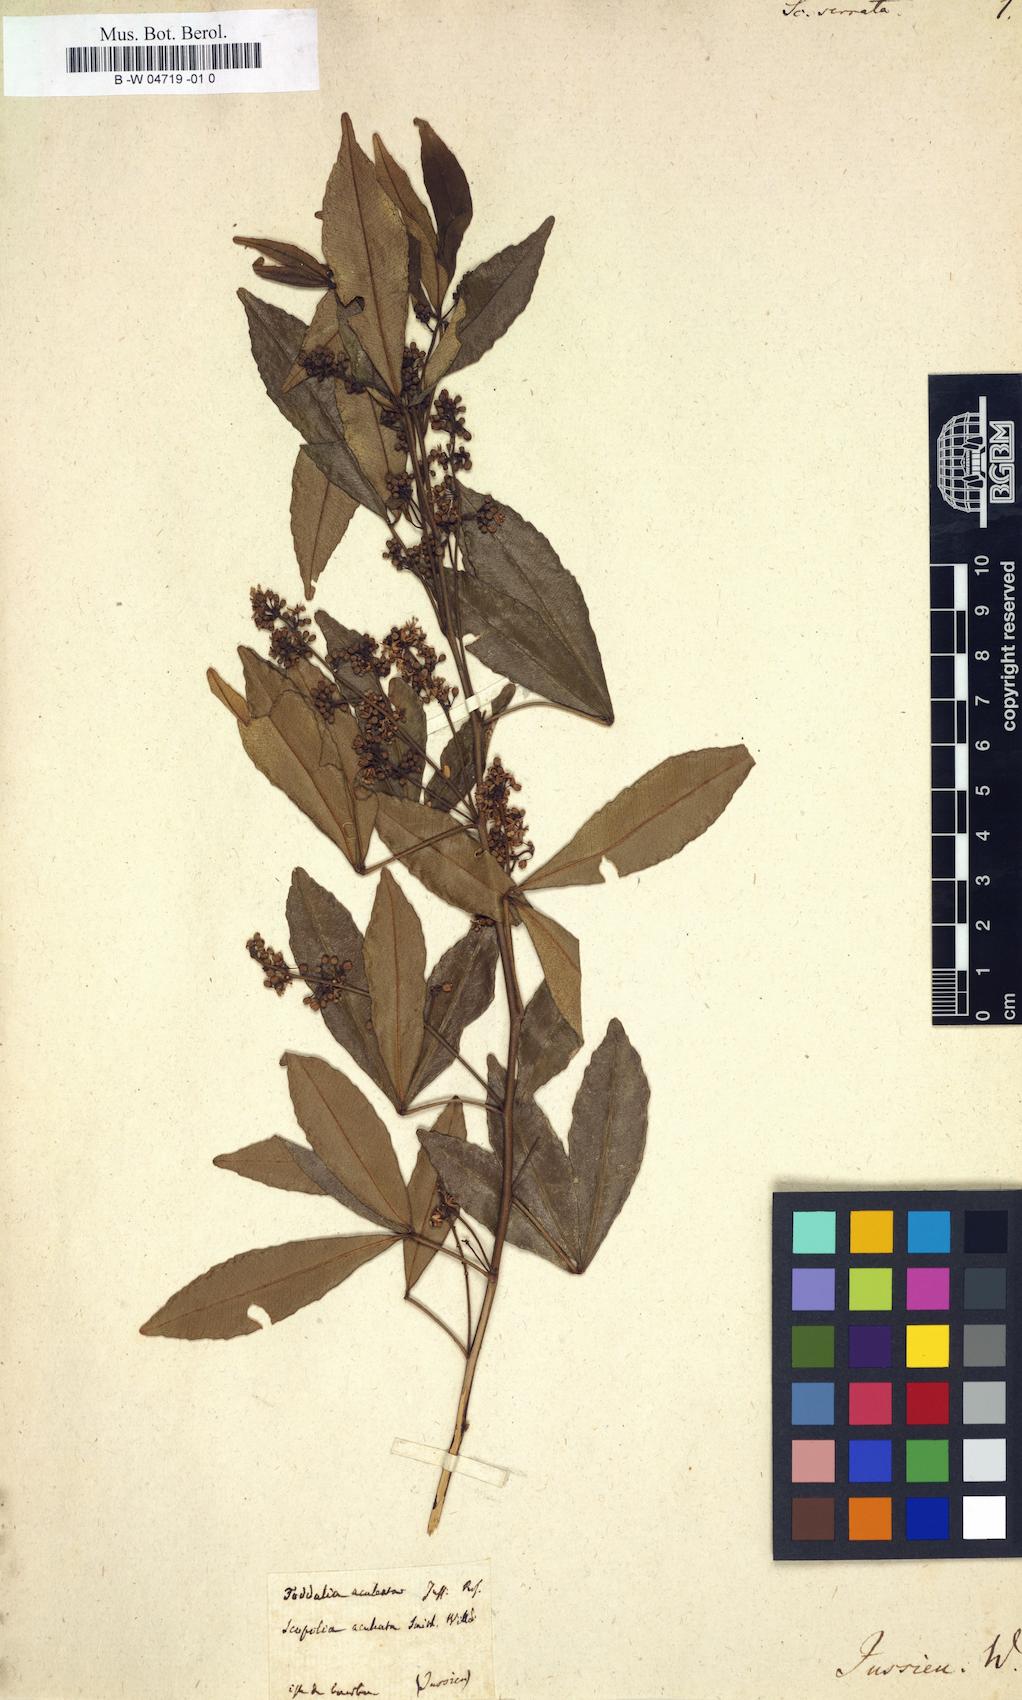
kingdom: Plantae
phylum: Tracheophyta
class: Magnoliopsida
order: Solanales
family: Solanaceae
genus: Scopolia
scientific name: Scopolia
